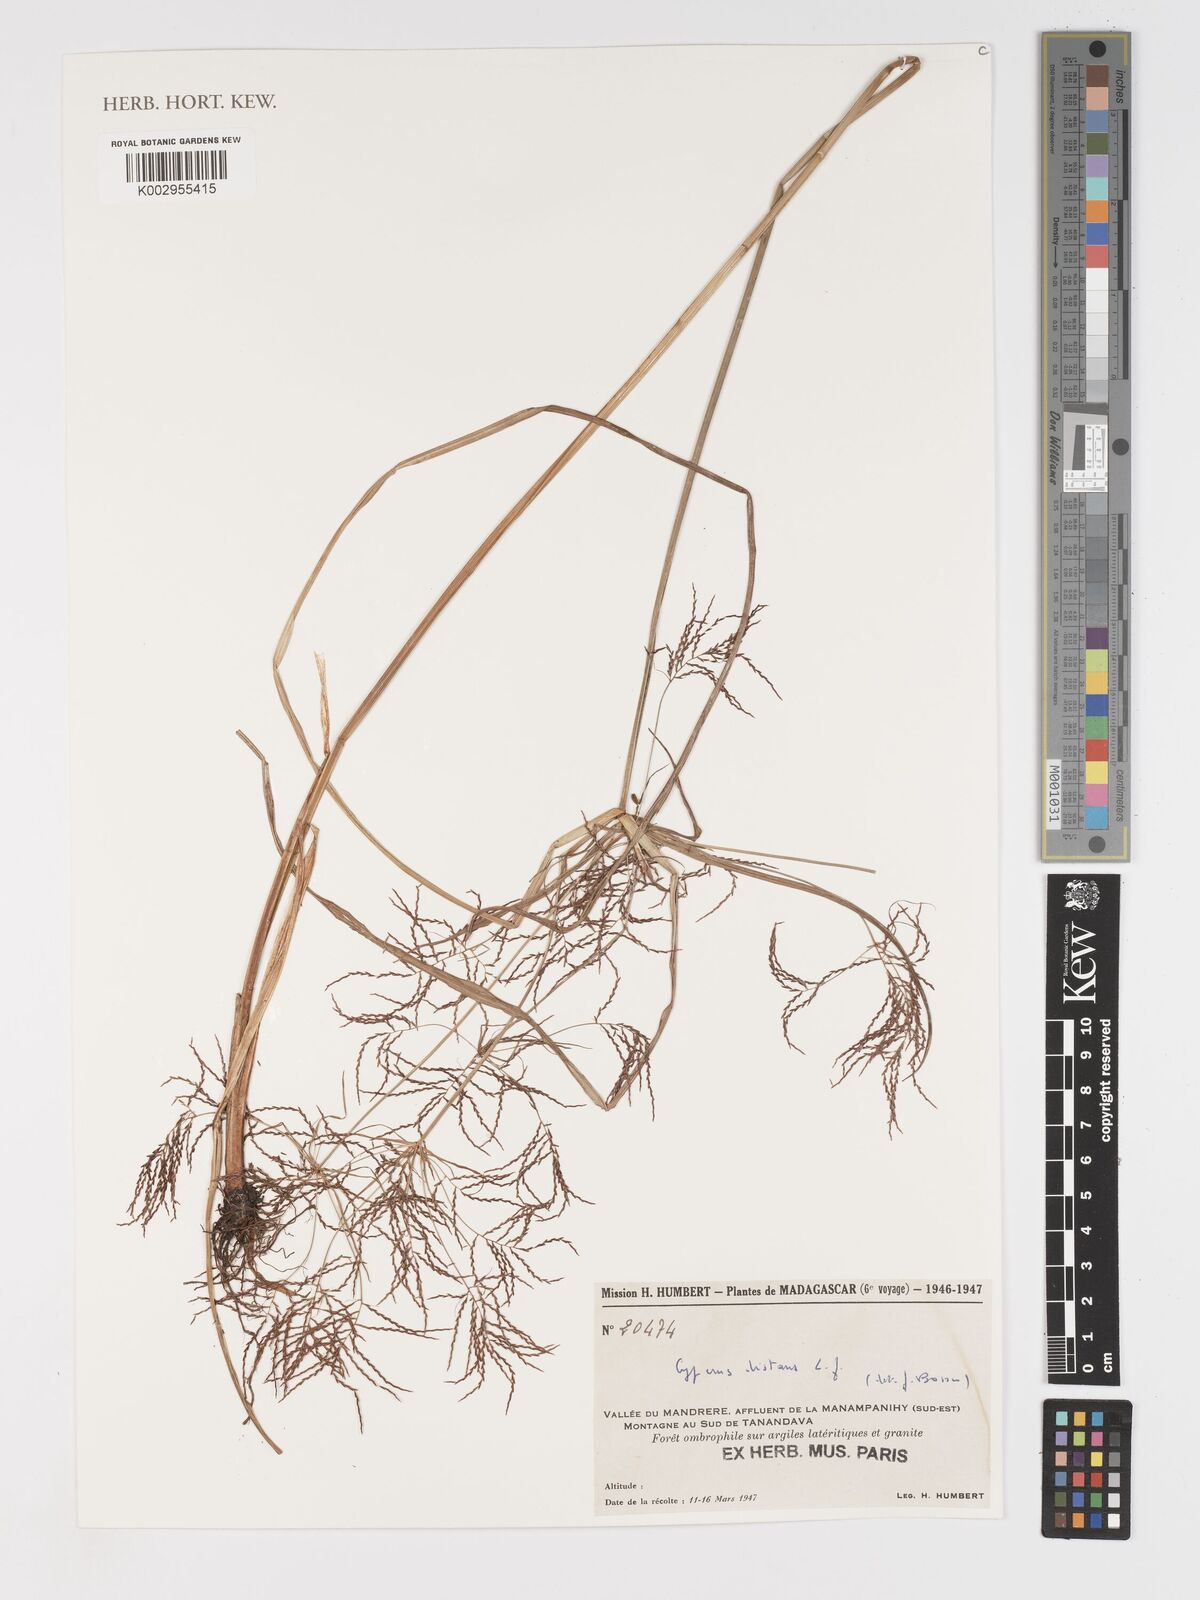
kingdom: Plantae
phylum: Tracheophyta
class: Liliopsida
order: Poales
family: Cyperaceae
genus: Cyperus
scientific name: Cyperus distans
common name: Slender cyperus
